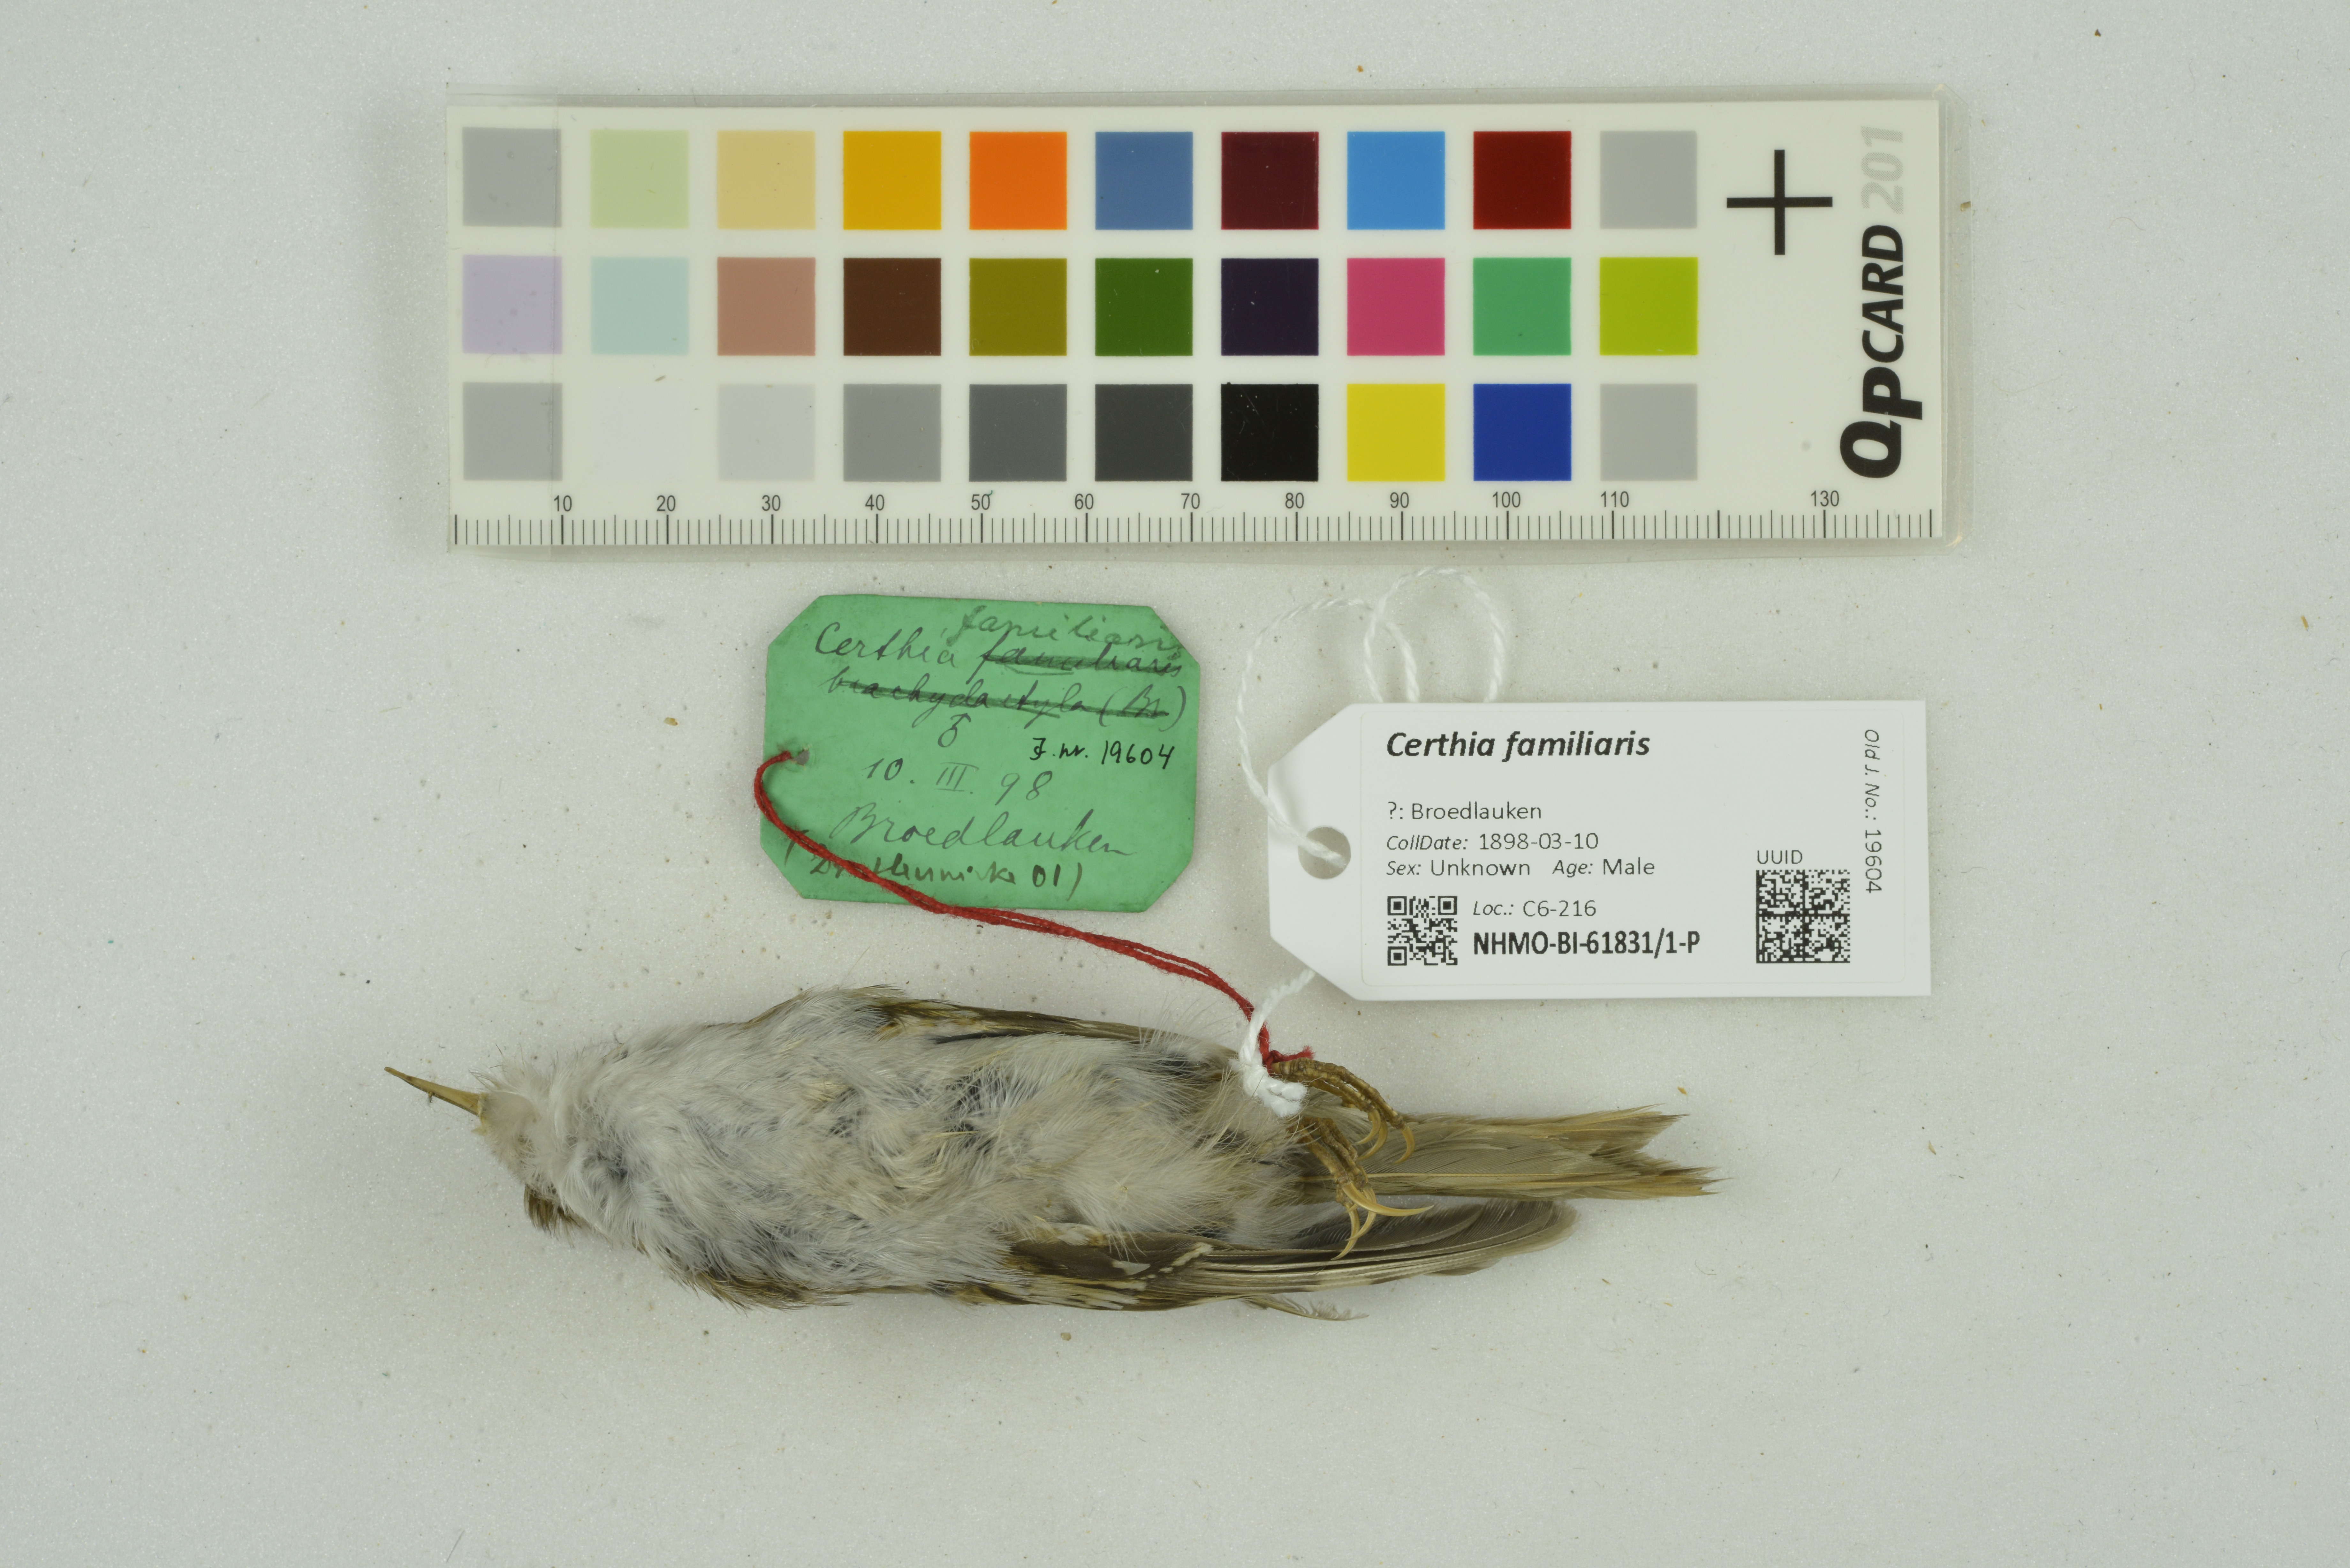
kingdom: Animalia
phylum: Chordata
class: Aves
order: Passeriformes
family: Certhiidae
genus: Certhia
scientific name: Certhia familiaris
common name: Eurasian treecreeper
